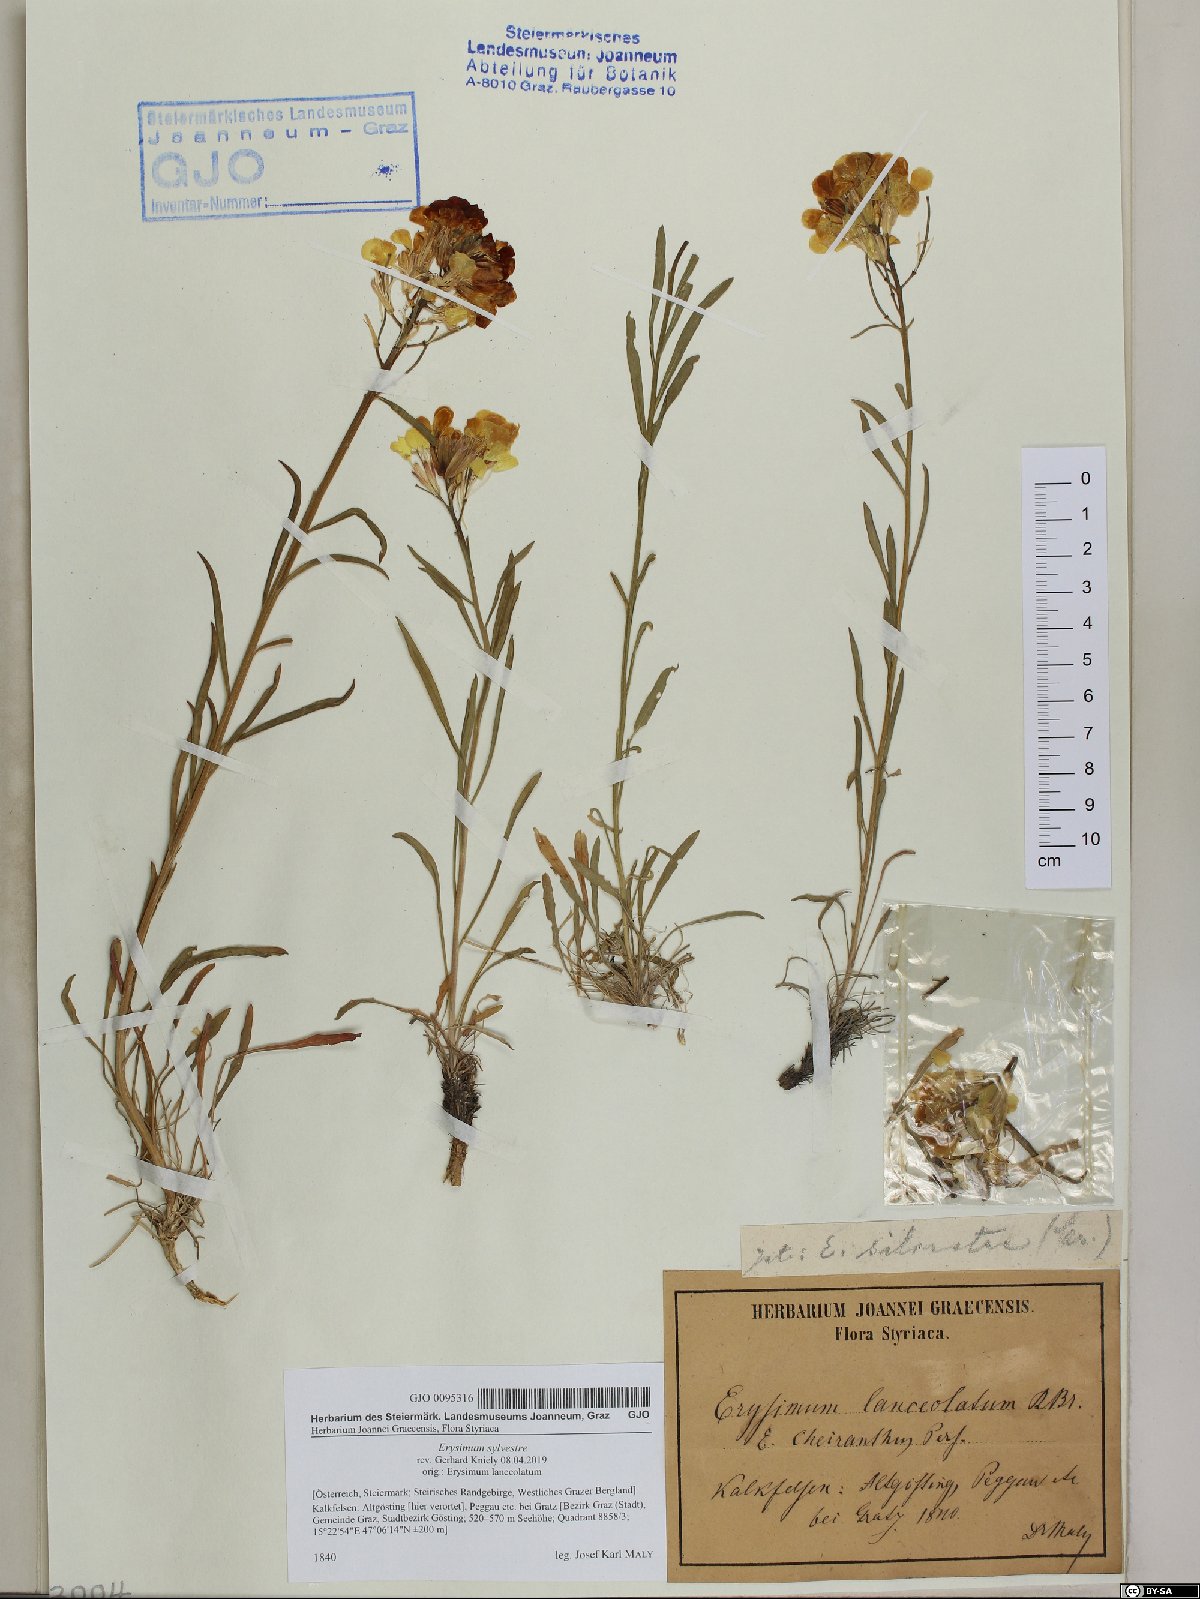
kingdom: Plantae
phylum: Tracheophyta
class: Magnoliopsida
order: Brassicales
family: Brassicaceae
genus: Erysimum
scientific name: Erysimum sylvestre
